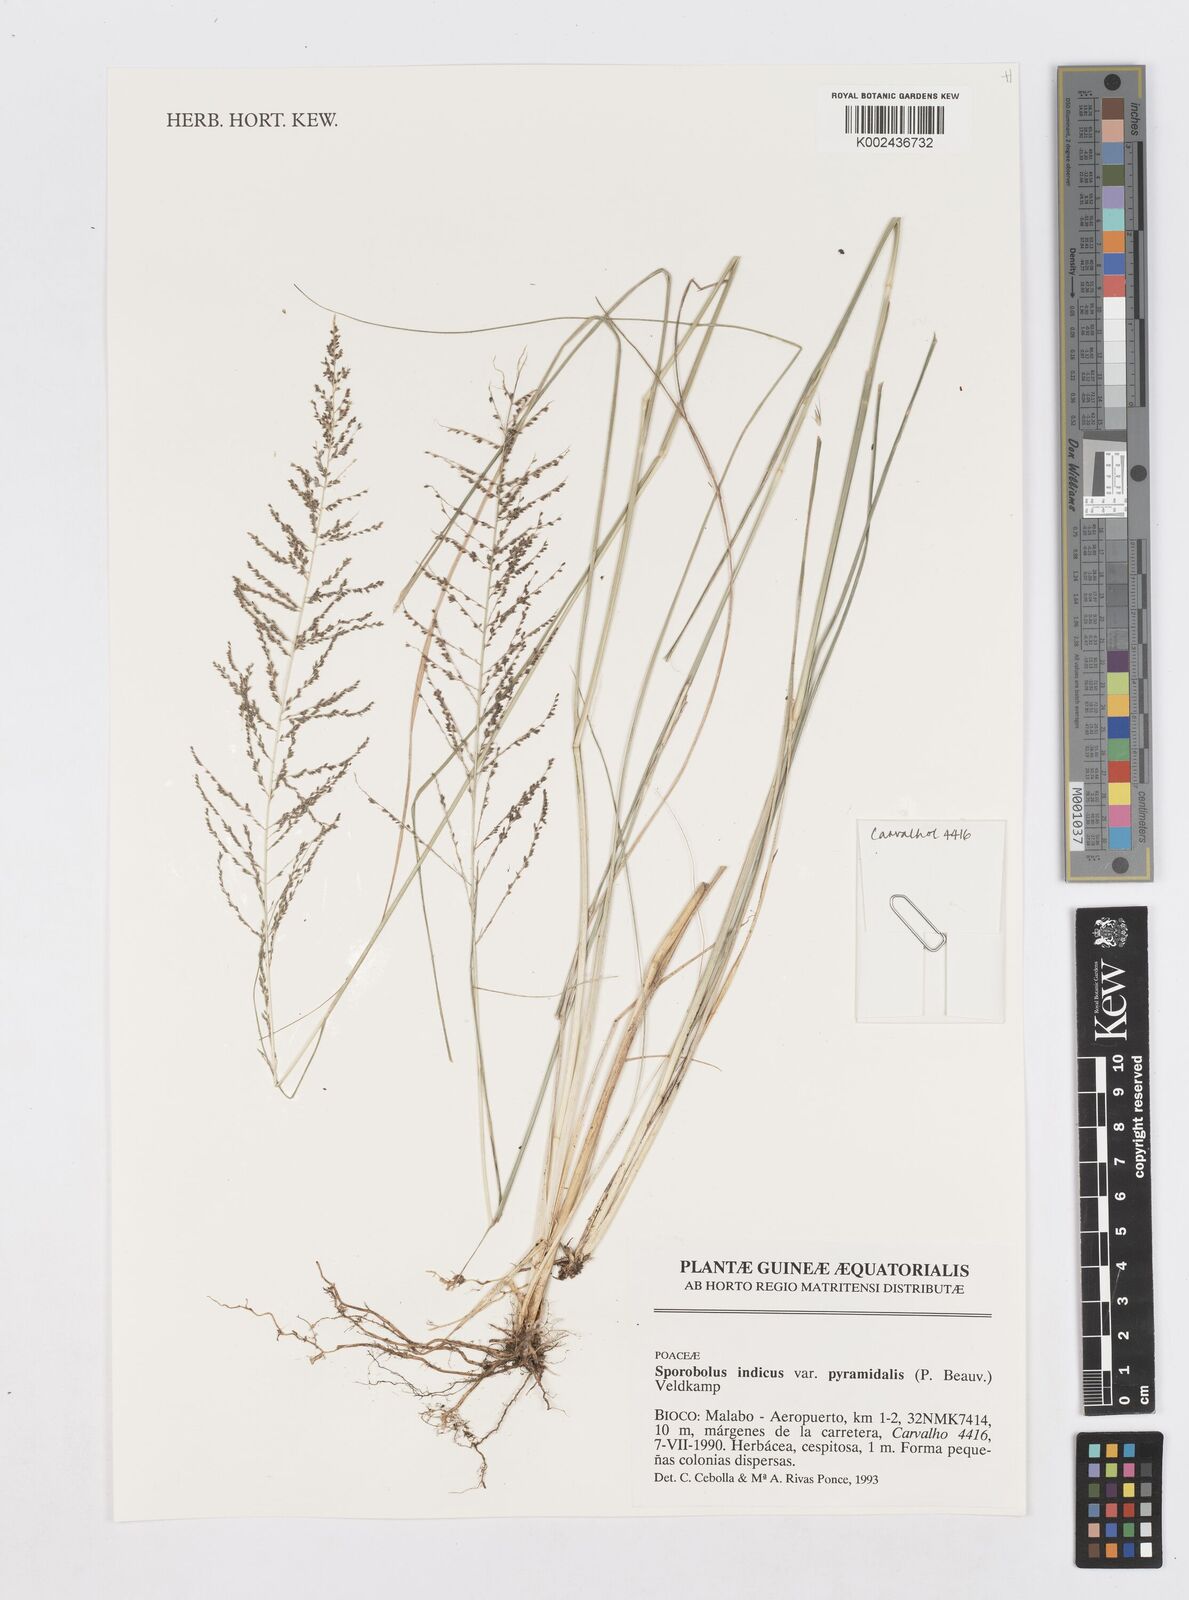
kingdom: Plantae
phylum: Tracheophyta
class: Liliopsida
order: Poales
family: Poaceae
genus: Sporobolus
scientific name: Sporobolus pyramidalis
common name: West indian dropseed
